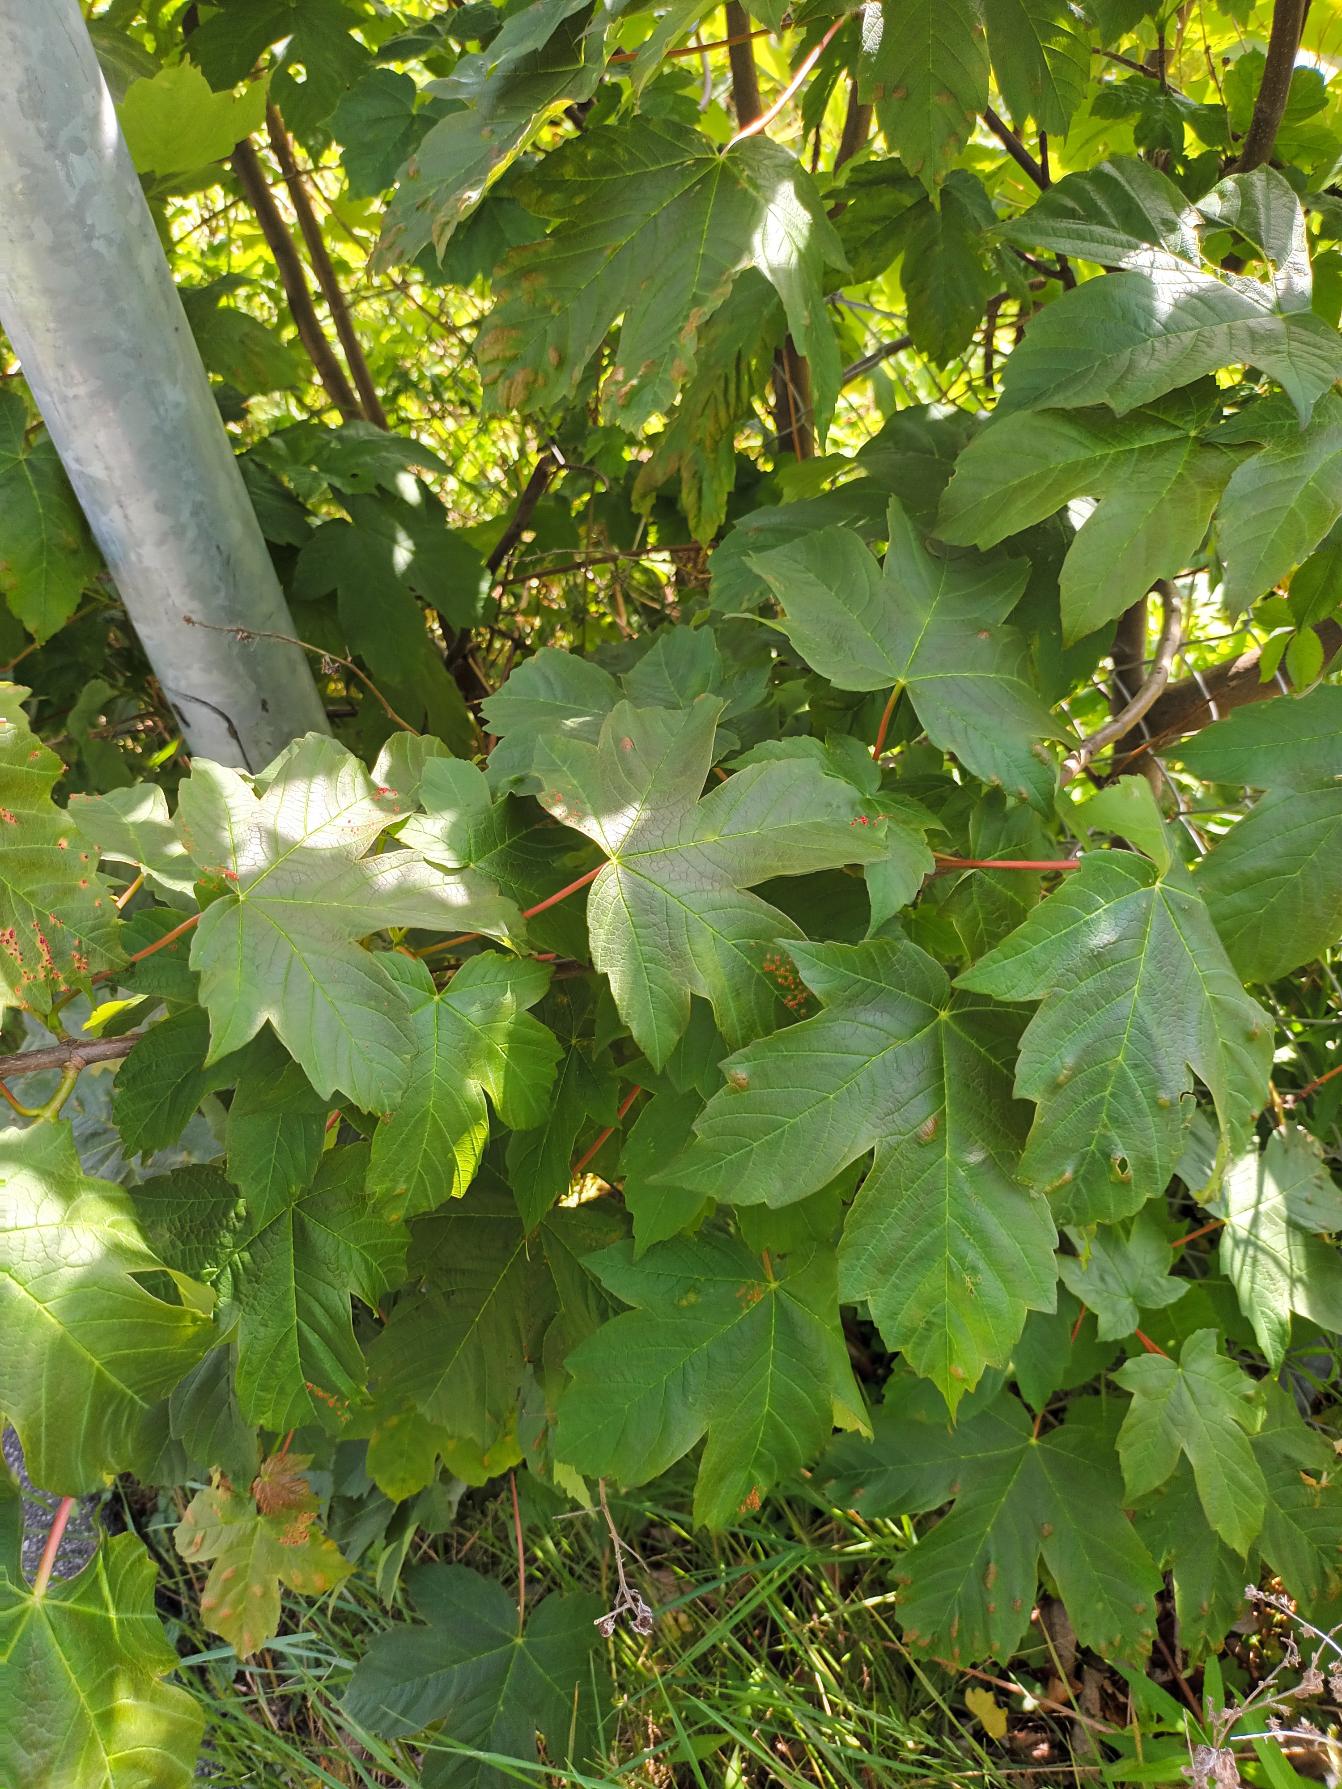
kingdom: Plantae
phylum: Tracheophyta
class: Magnoliopsida
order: Sapindales
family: Sapindaceae
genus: Acer
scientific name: Acer pseudoplatanus
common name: Ahorn
